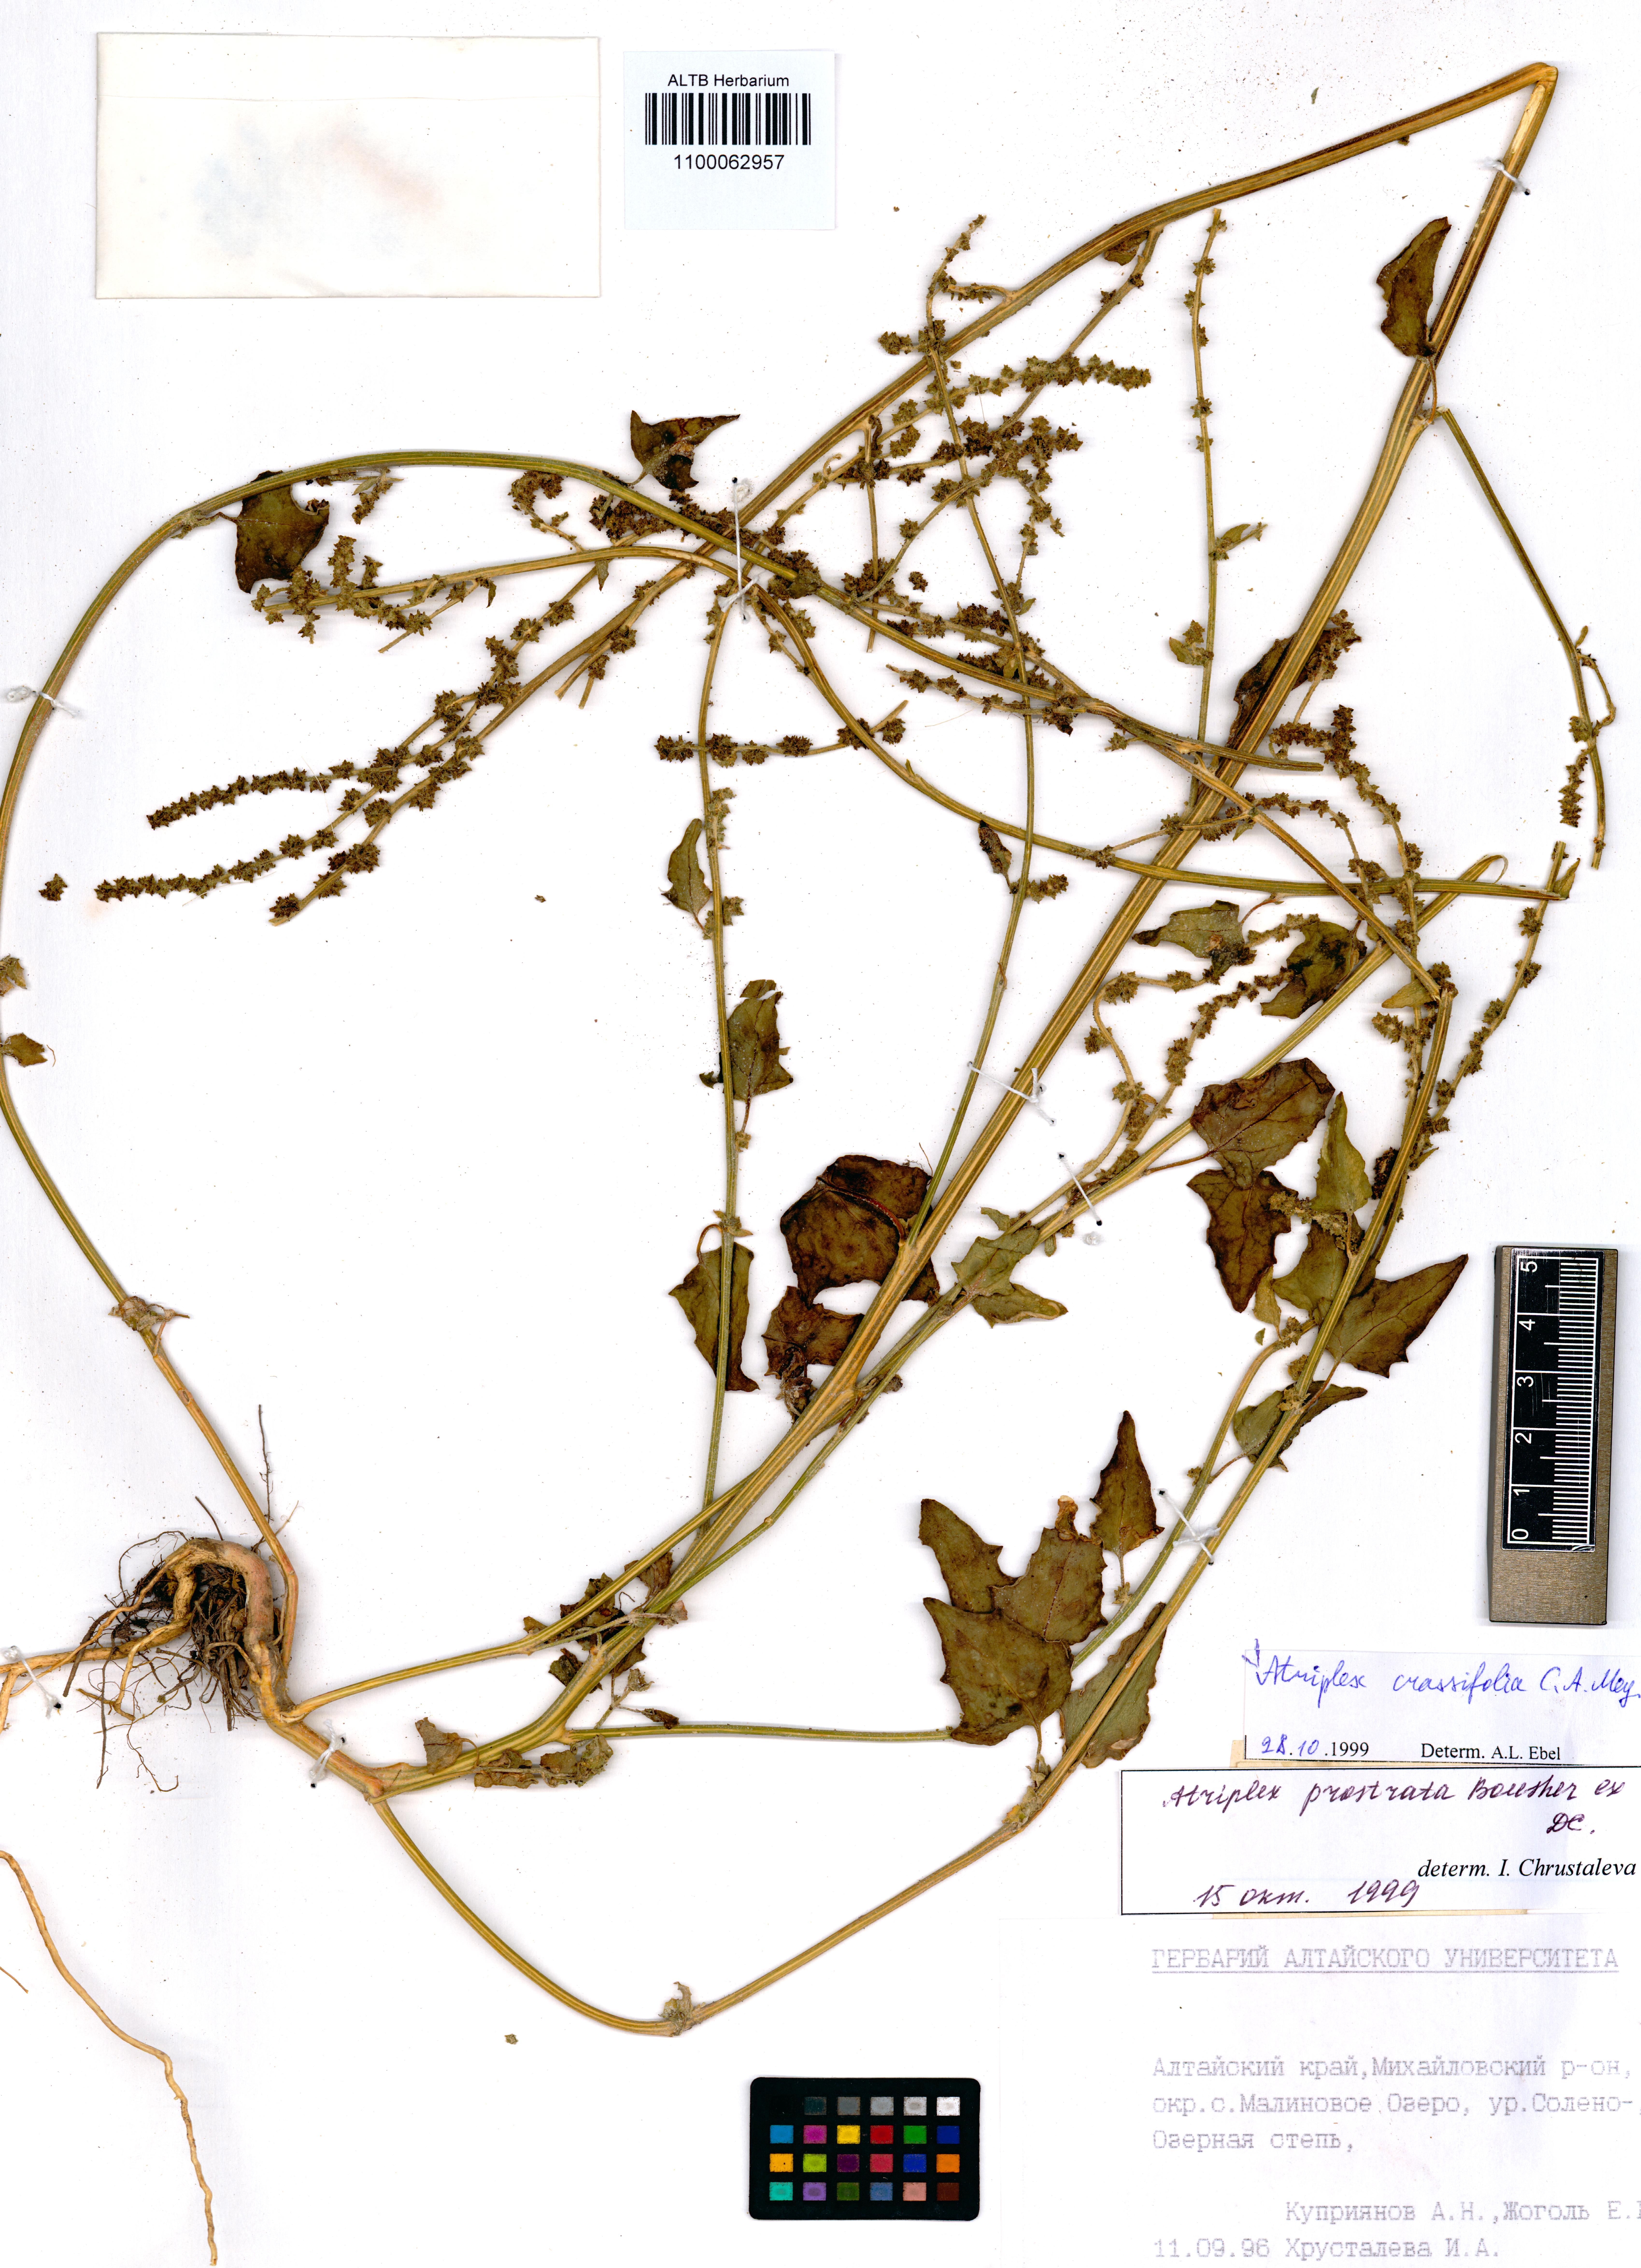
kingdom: Plantae
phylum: Tracheophyta
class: Magnoliopsida
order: Caryophyllales
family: Amaranthaceae
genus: Atriplex
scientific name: Atriplex crassifolia
